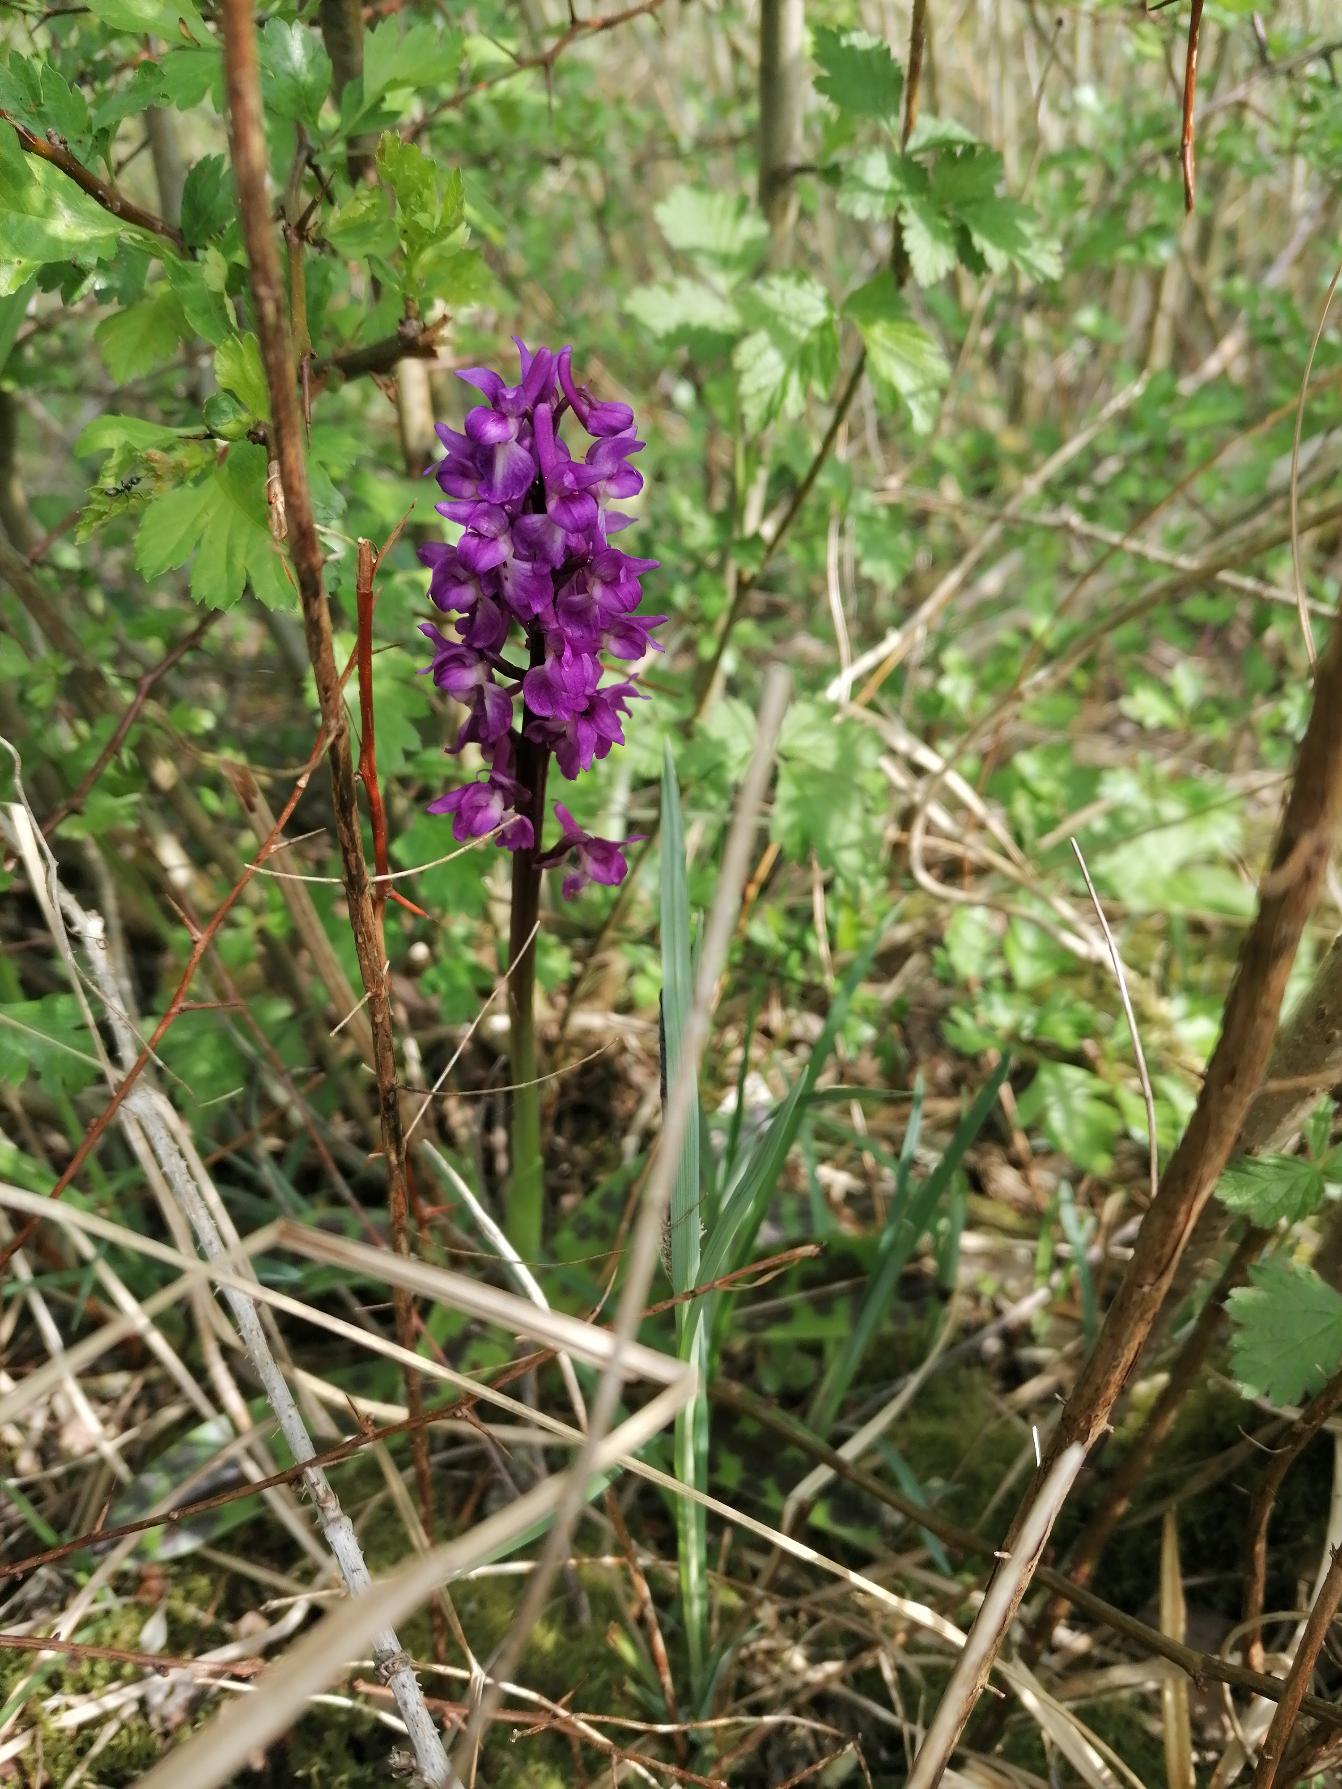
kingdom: Plantae
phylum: Tracheophyta
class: Liliopsida
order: Asparagales
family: Orchidaceae
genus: Orchis
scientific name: Orchis mascula
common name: Tyndakset gøgeurt
